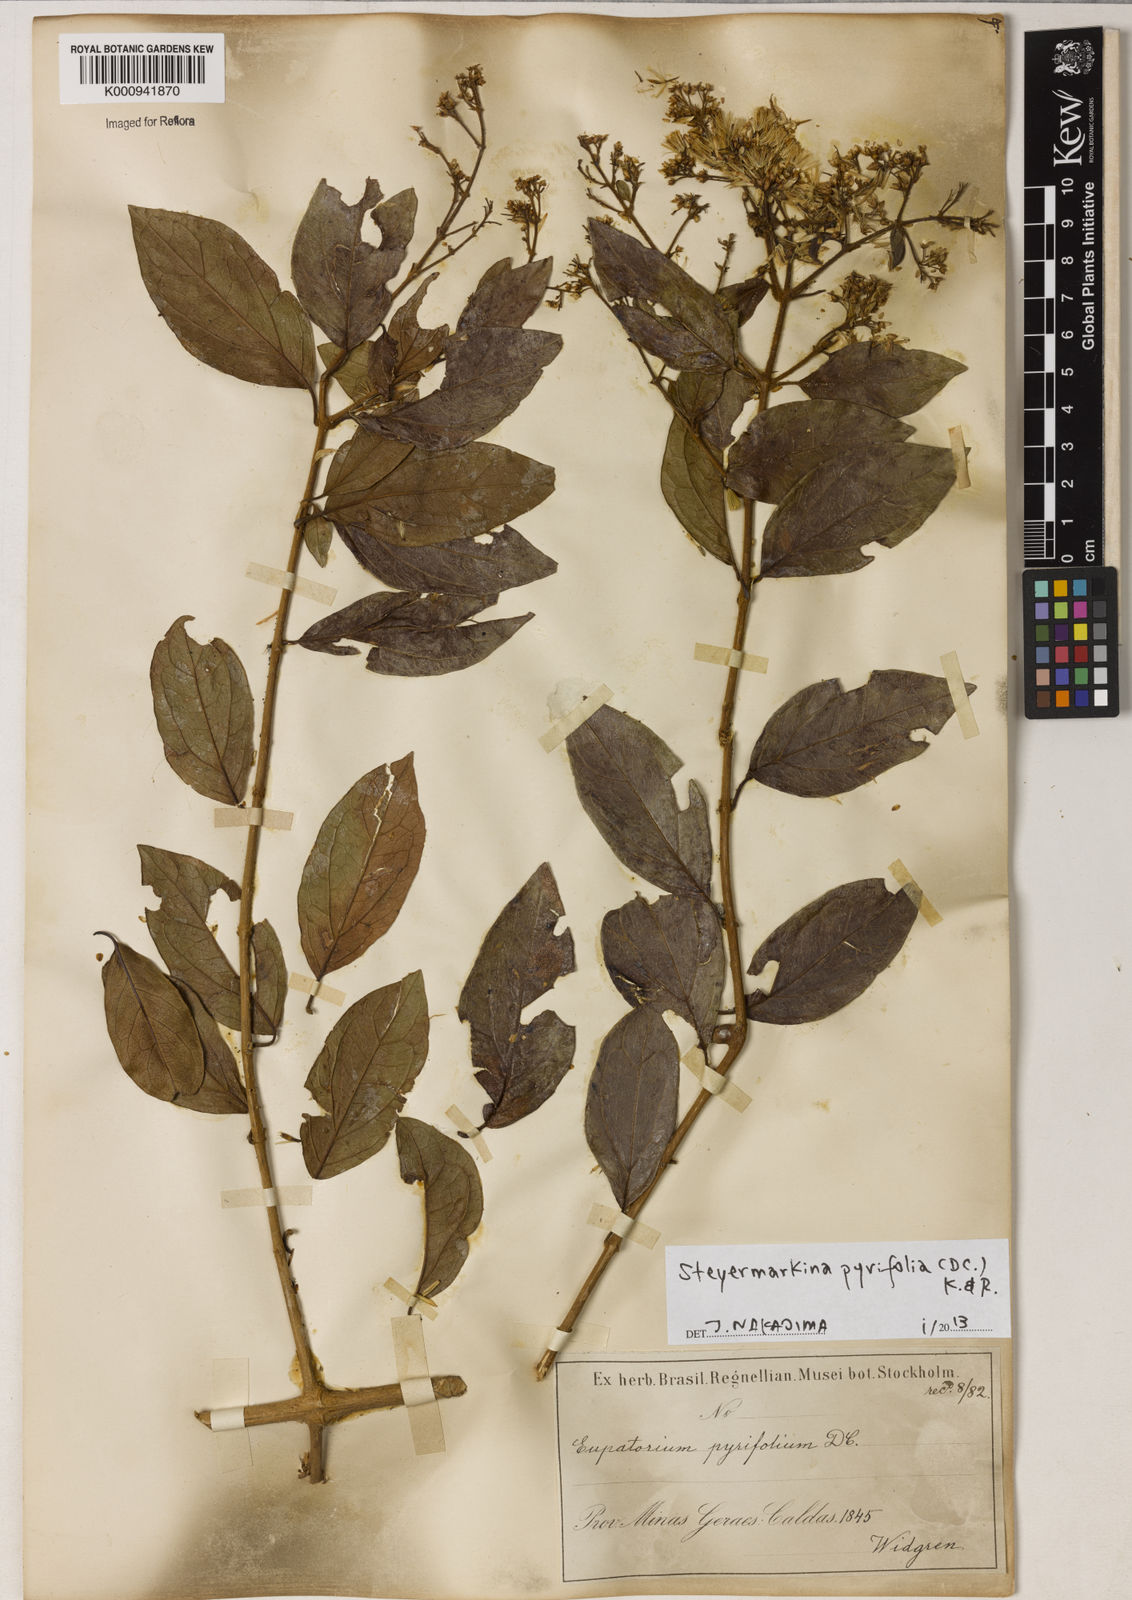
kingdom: Plantae
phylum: Tracheophyta
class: Magnoliopsida
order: Asterales
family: Asteraceae
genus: Steyermarkina
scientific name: Steyermarkina pyrifolia
